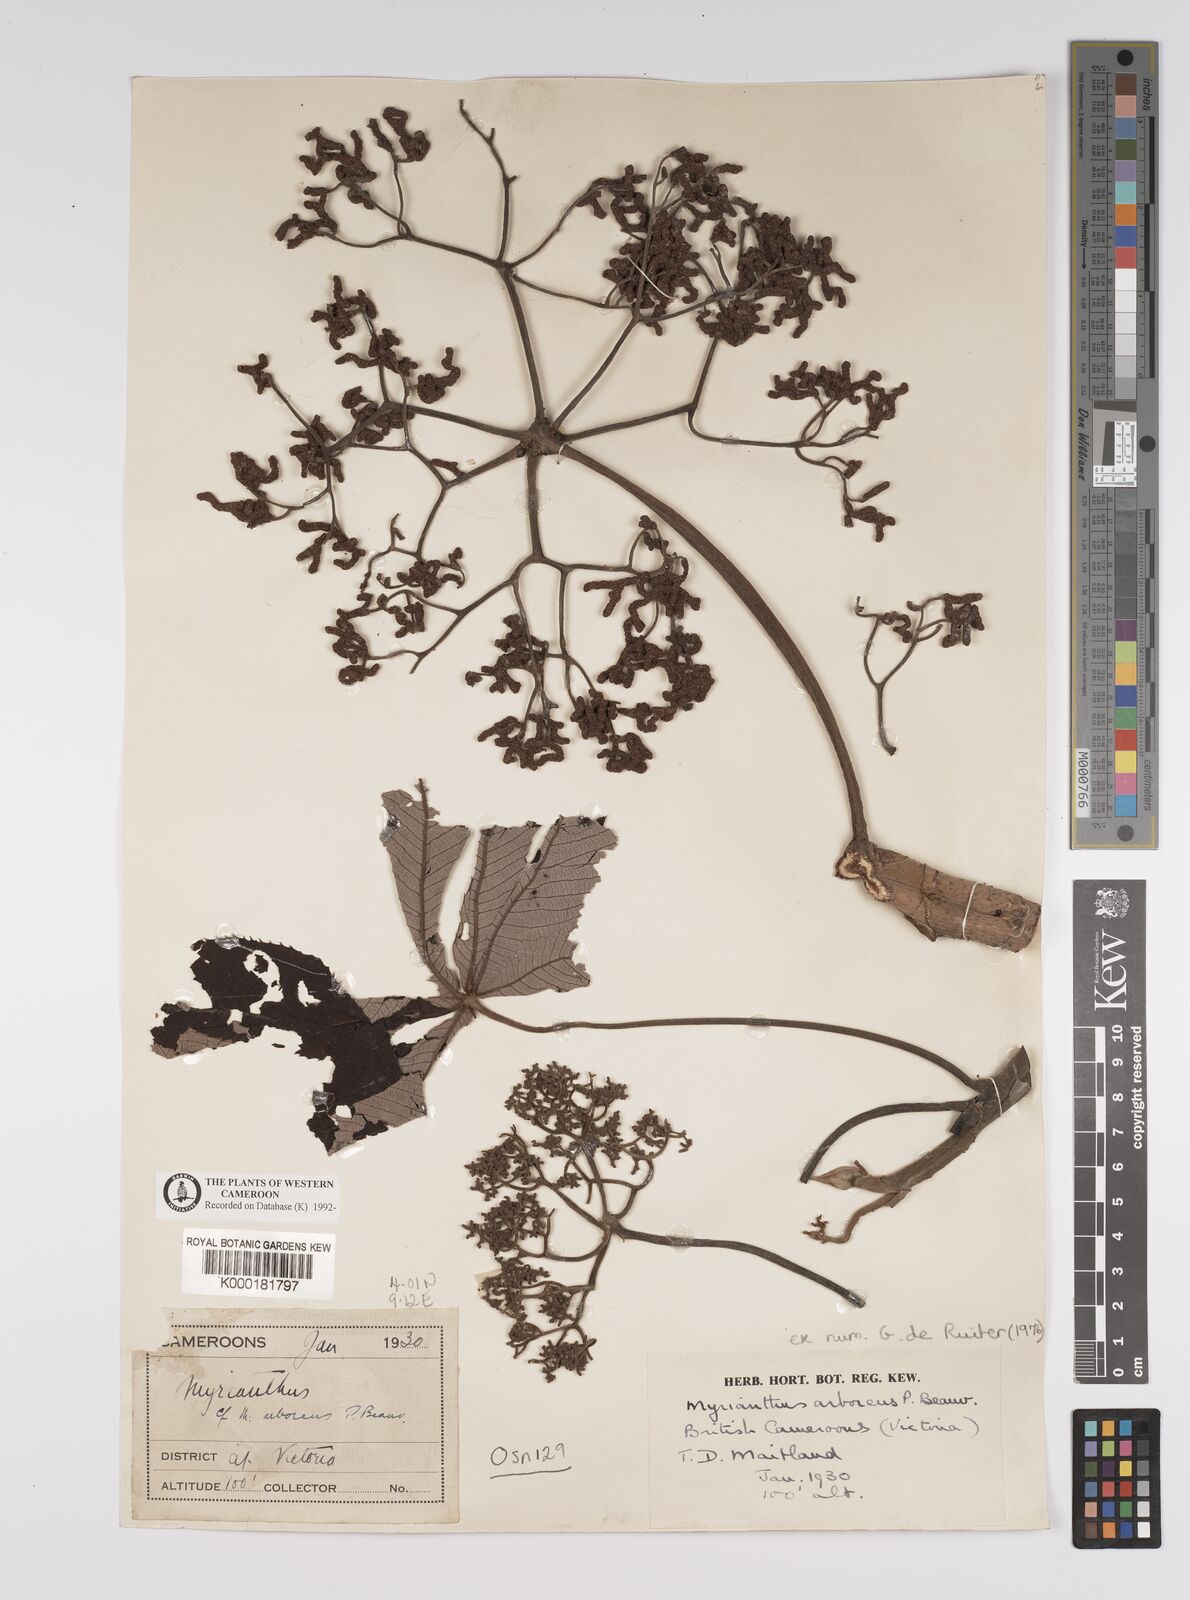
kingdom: Plantae
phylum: Tracheophyta
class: Magnoliopsida
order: Rosales
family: Urticaceae
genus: Myrianthus
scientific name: Myrianthus arboreus
